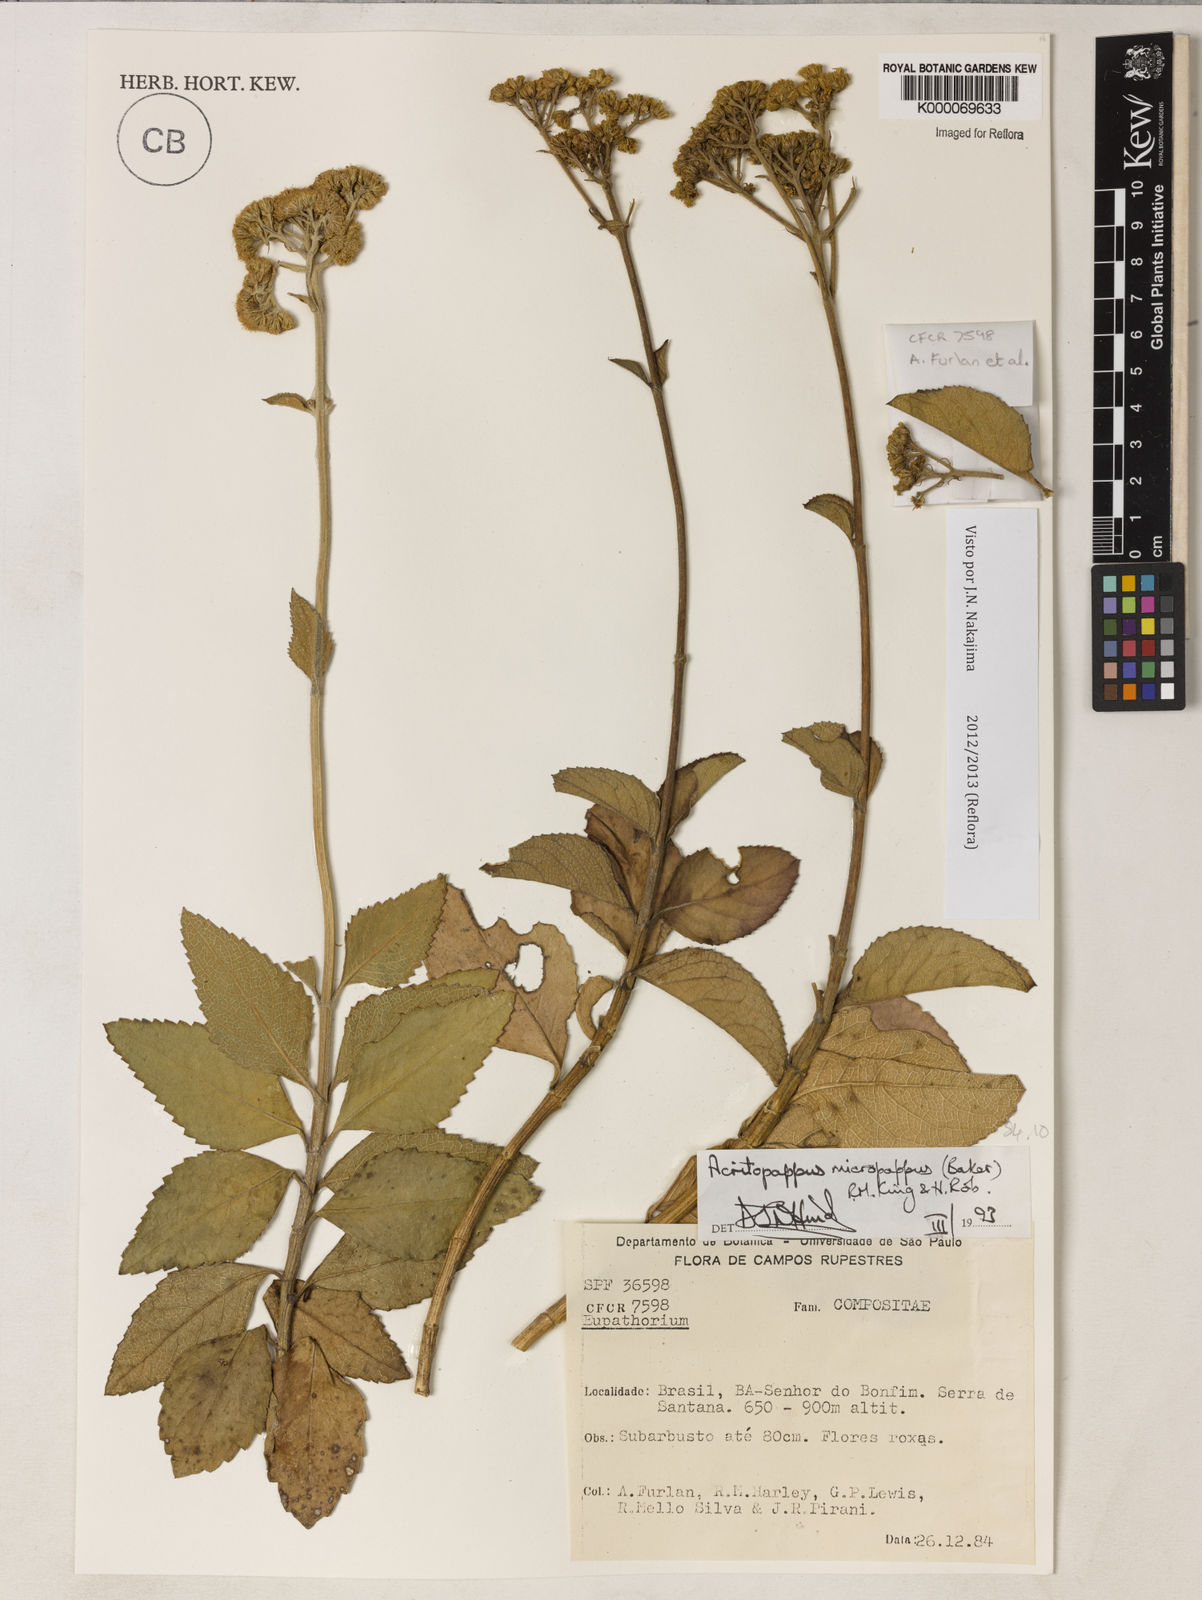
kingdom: Plantae
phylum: Tracheophyta
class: Magnoliopsida
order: Asterales
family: Asteraceae
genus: Acritopappus
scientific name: Acritopappus micropappus
